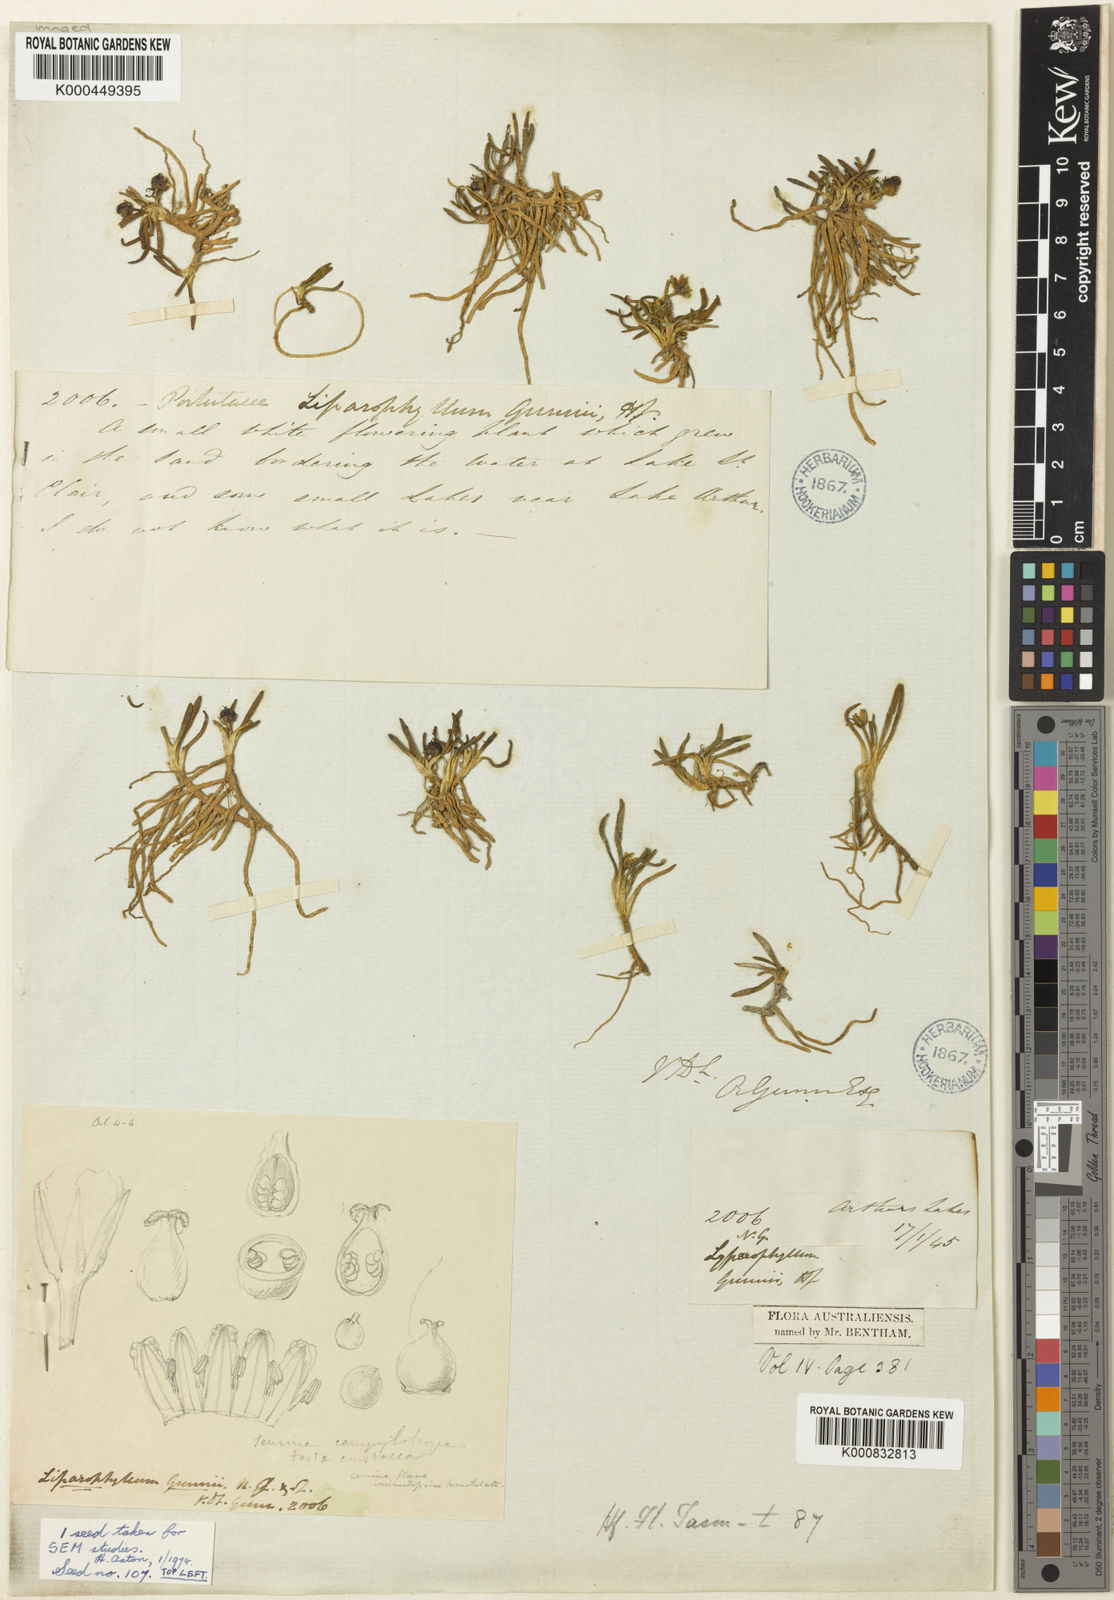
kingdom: Plantae
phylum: Tracheophyta
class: Magnoliopsida
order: Asterales
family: Menyanthaceae
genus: Liparophyllum
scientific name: Liparophyllum gunnii
